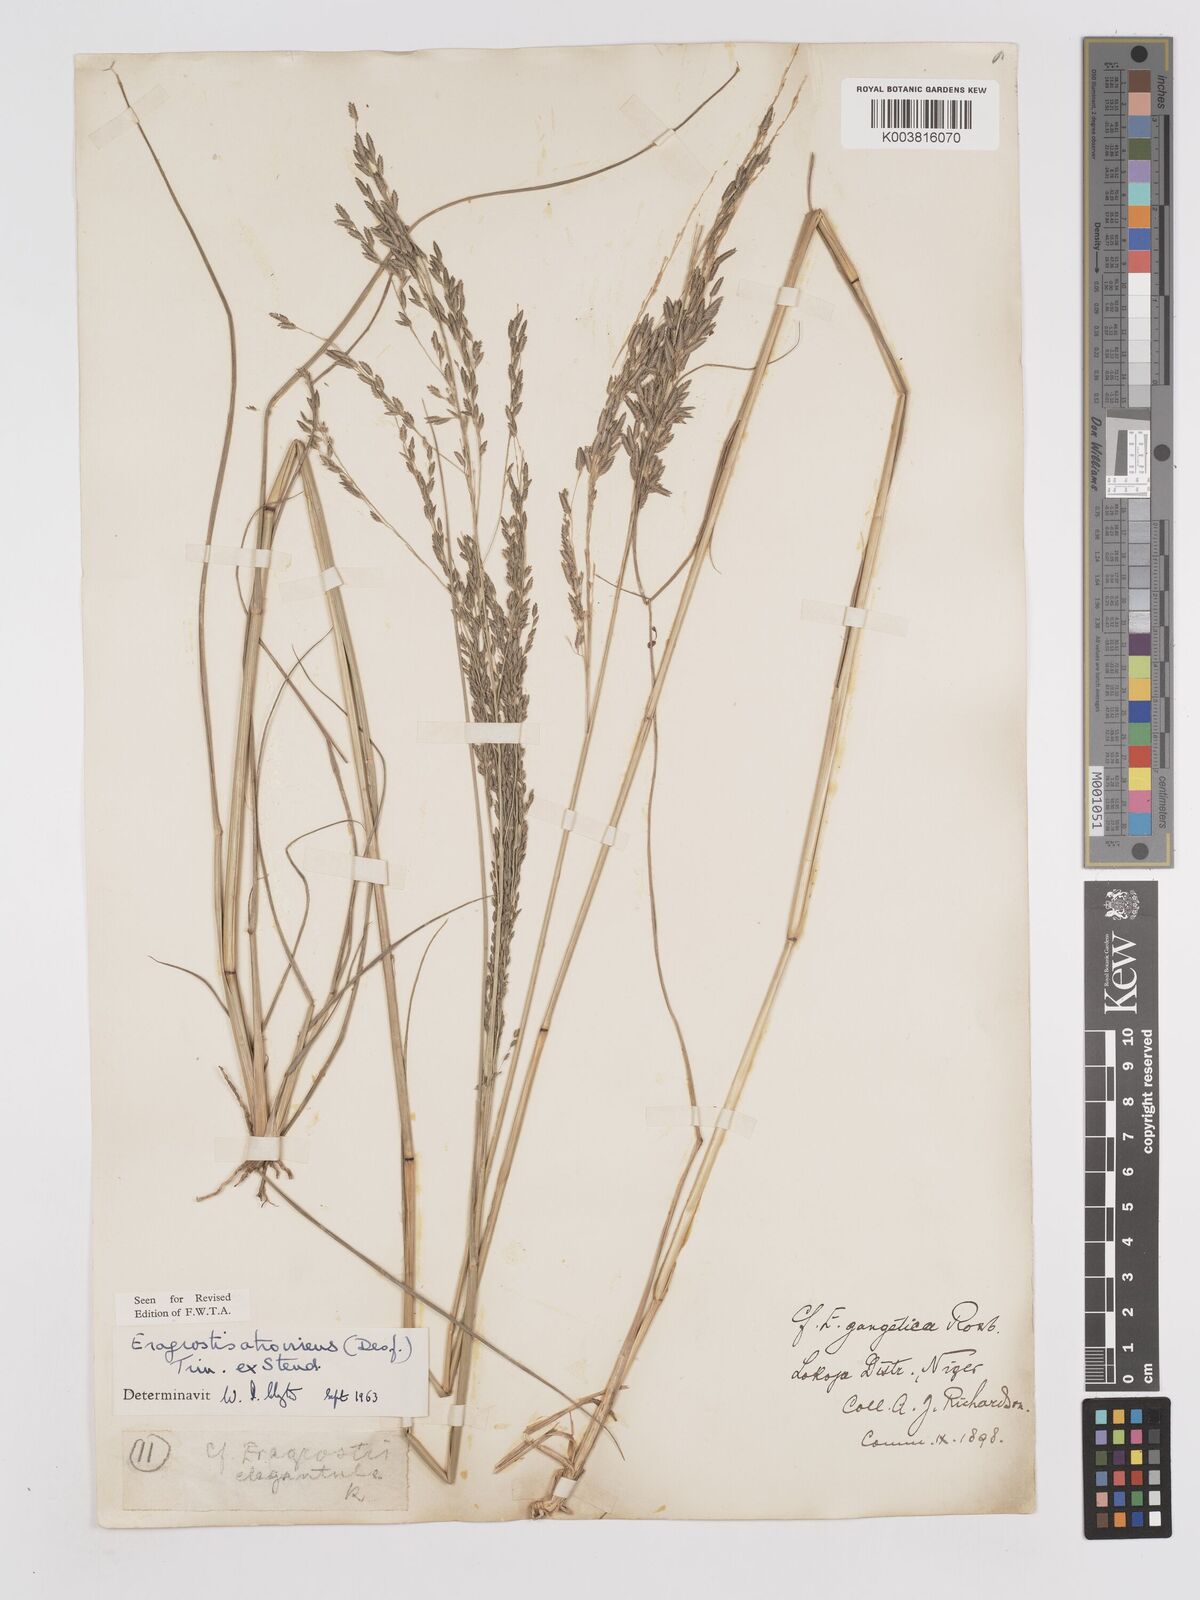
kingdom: Plantae
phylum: Tracheophyta
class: Liliopsida
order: Poales
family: Poaceae
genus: Eragrostis
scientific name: Eragrostis atrovirens
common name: Thalia lovegrass
